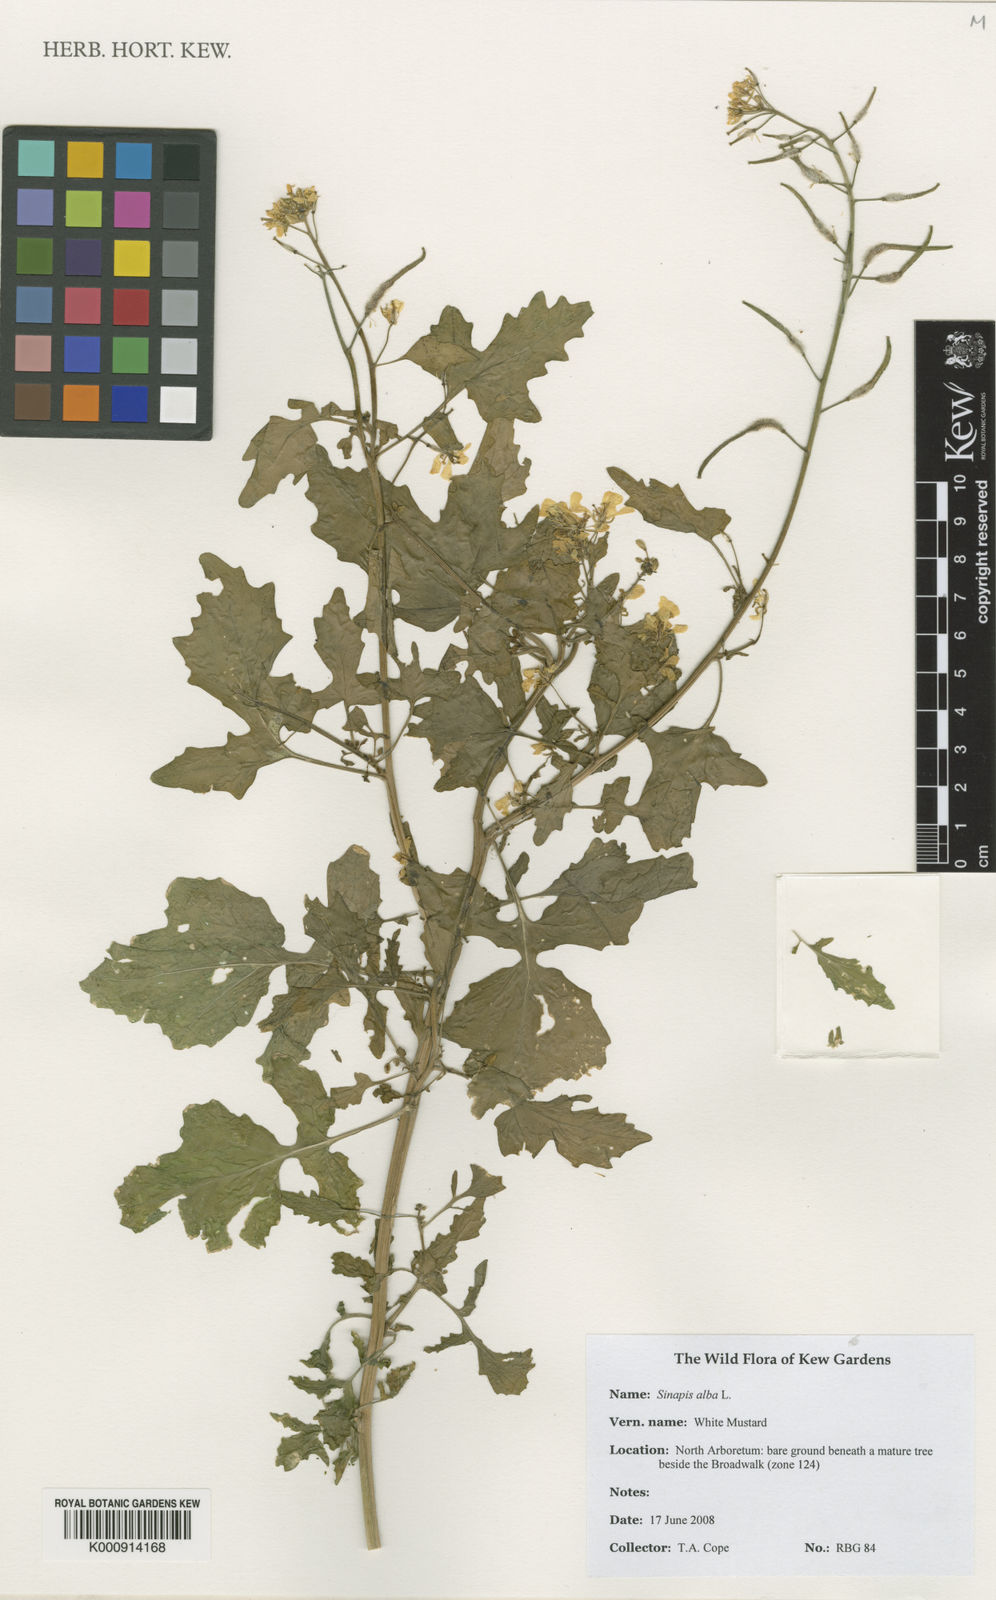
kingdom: Plantae
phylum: Tracheophyta
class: Magnoliopsida
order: Brassicales
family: Brassicaceae
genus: Sinapis
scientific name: Sinapis alba
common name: White mustard
